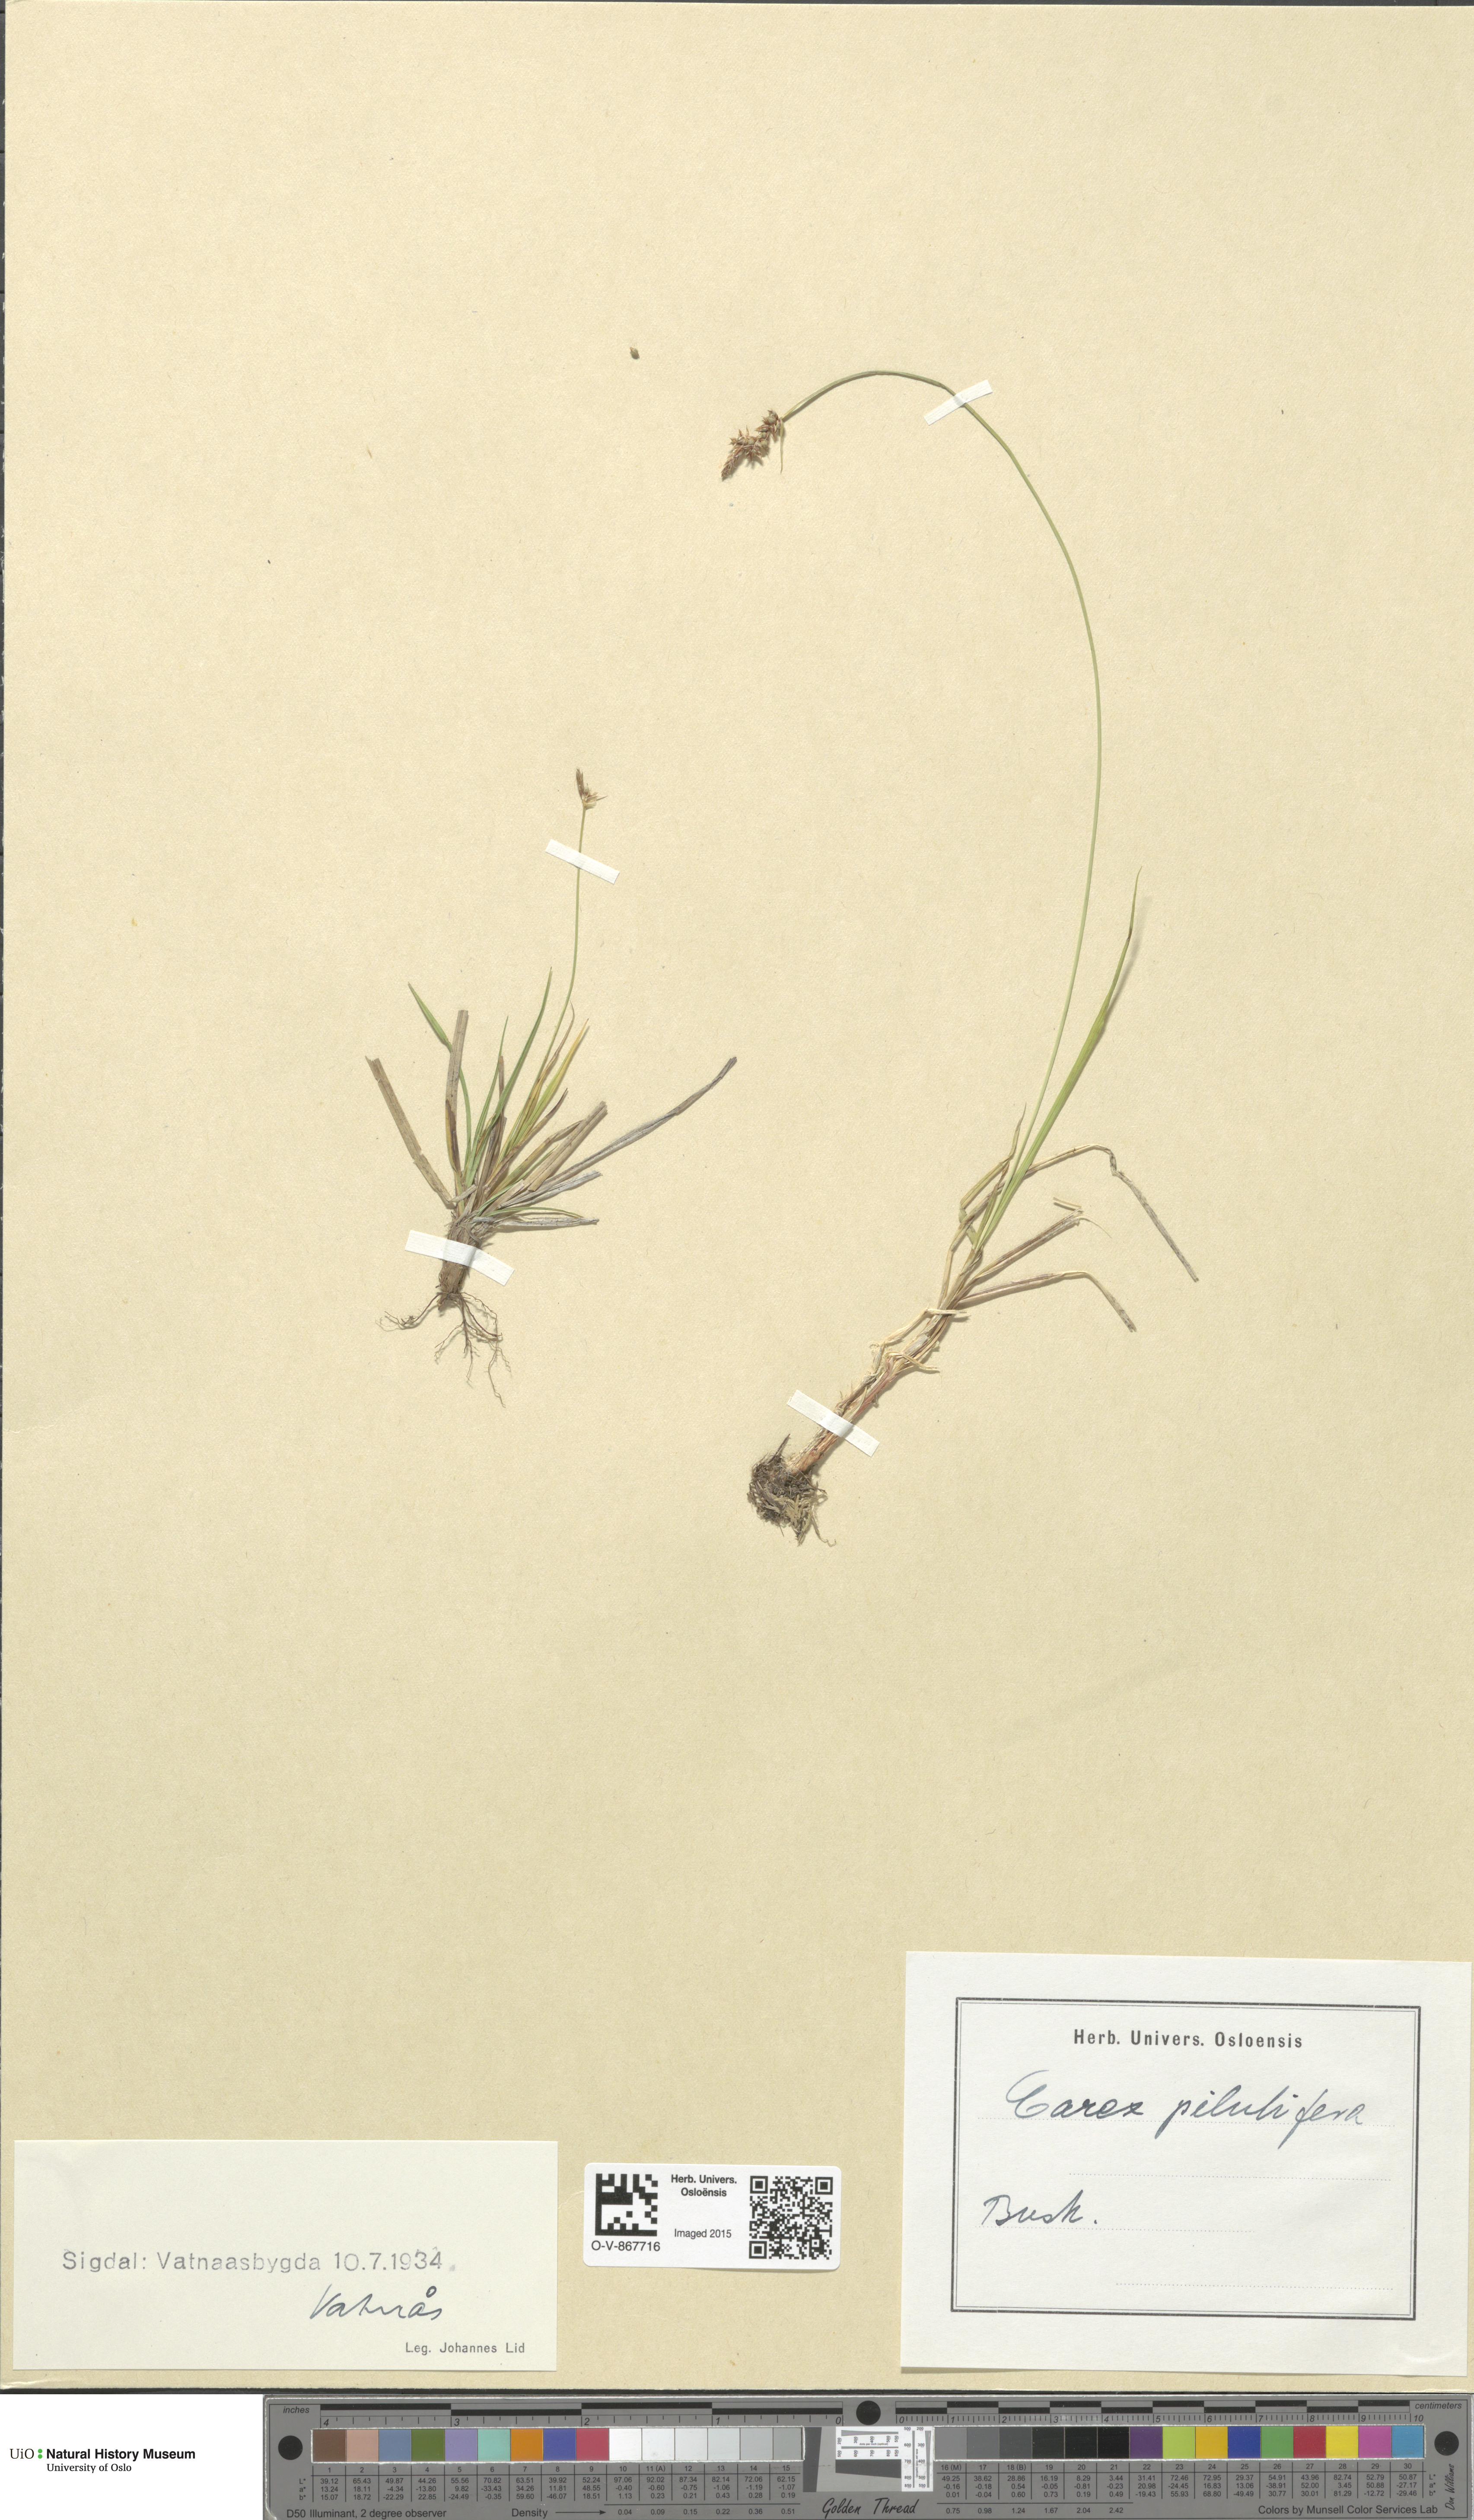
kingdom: Plantae
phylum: Tracheophyta
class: Liliopsida
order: Poales
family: Cyperaceae
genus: Carex
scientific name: Carex pilulifera
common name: Pill sedge
